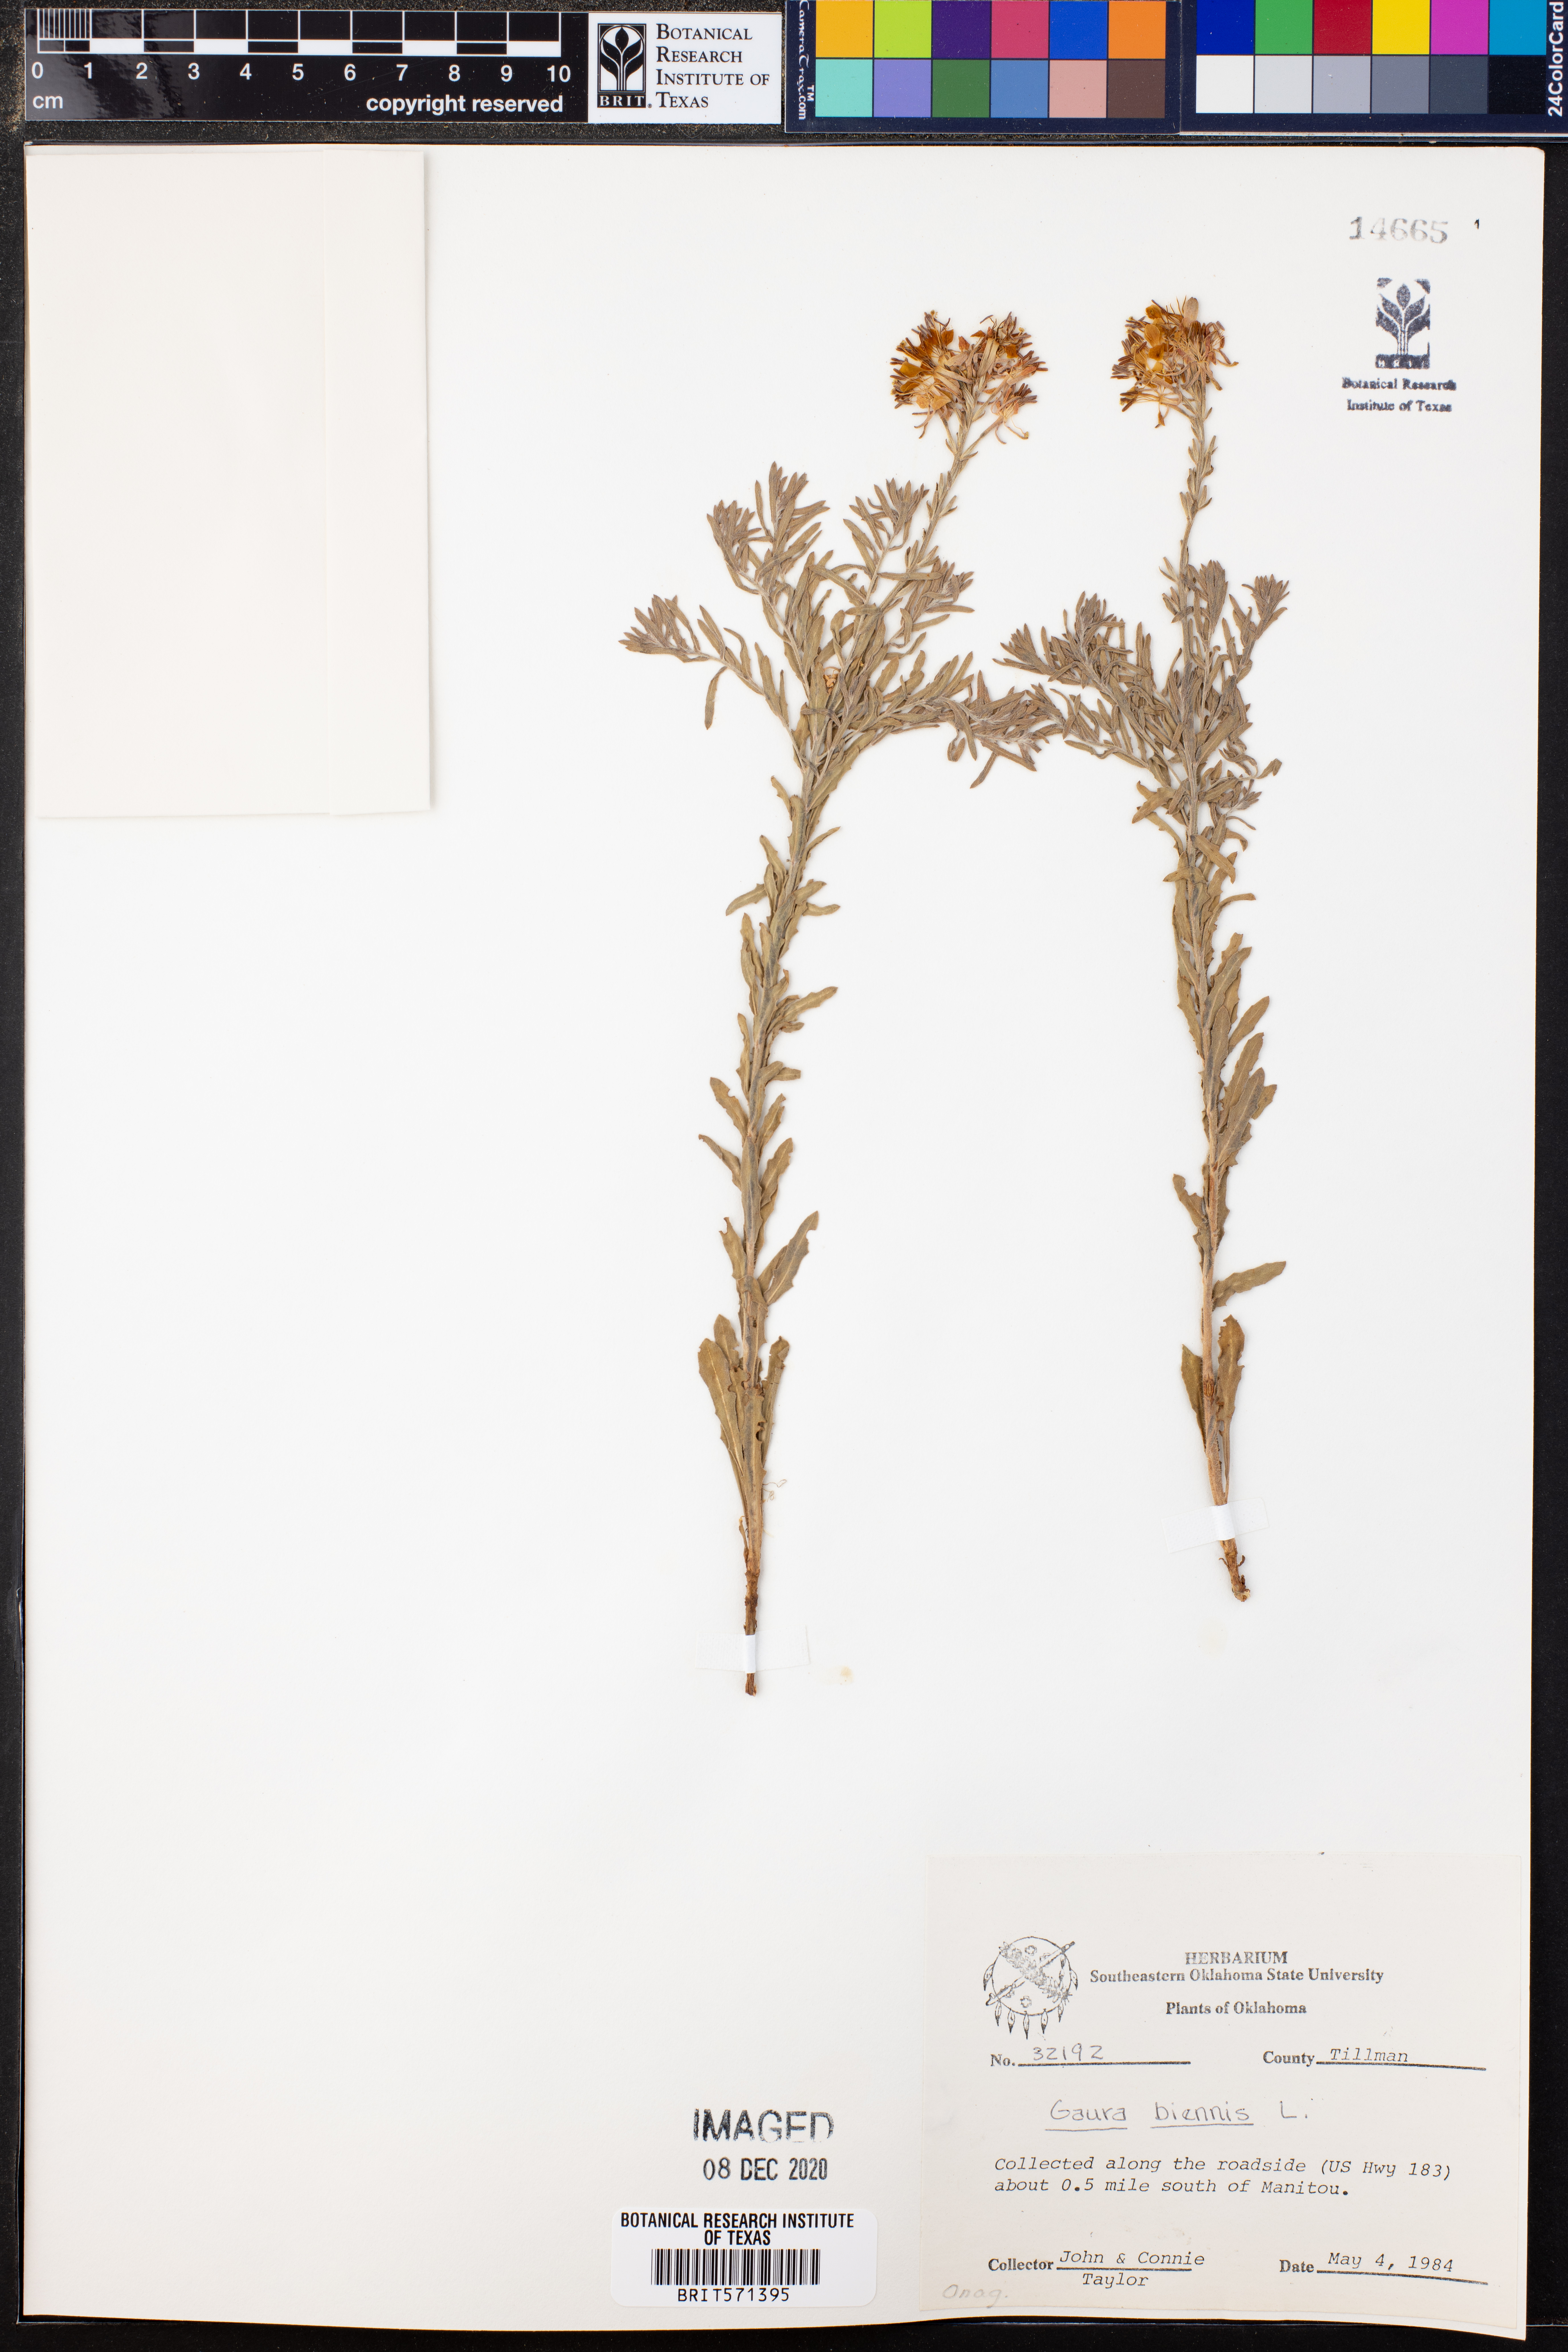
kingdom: Plantae
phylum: Tracheophyta
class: Magnoliopsida
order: Myrtales
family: Onagraceae
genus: Oenothera
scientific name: Oenothera gaura
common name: Biennial beeblossom
